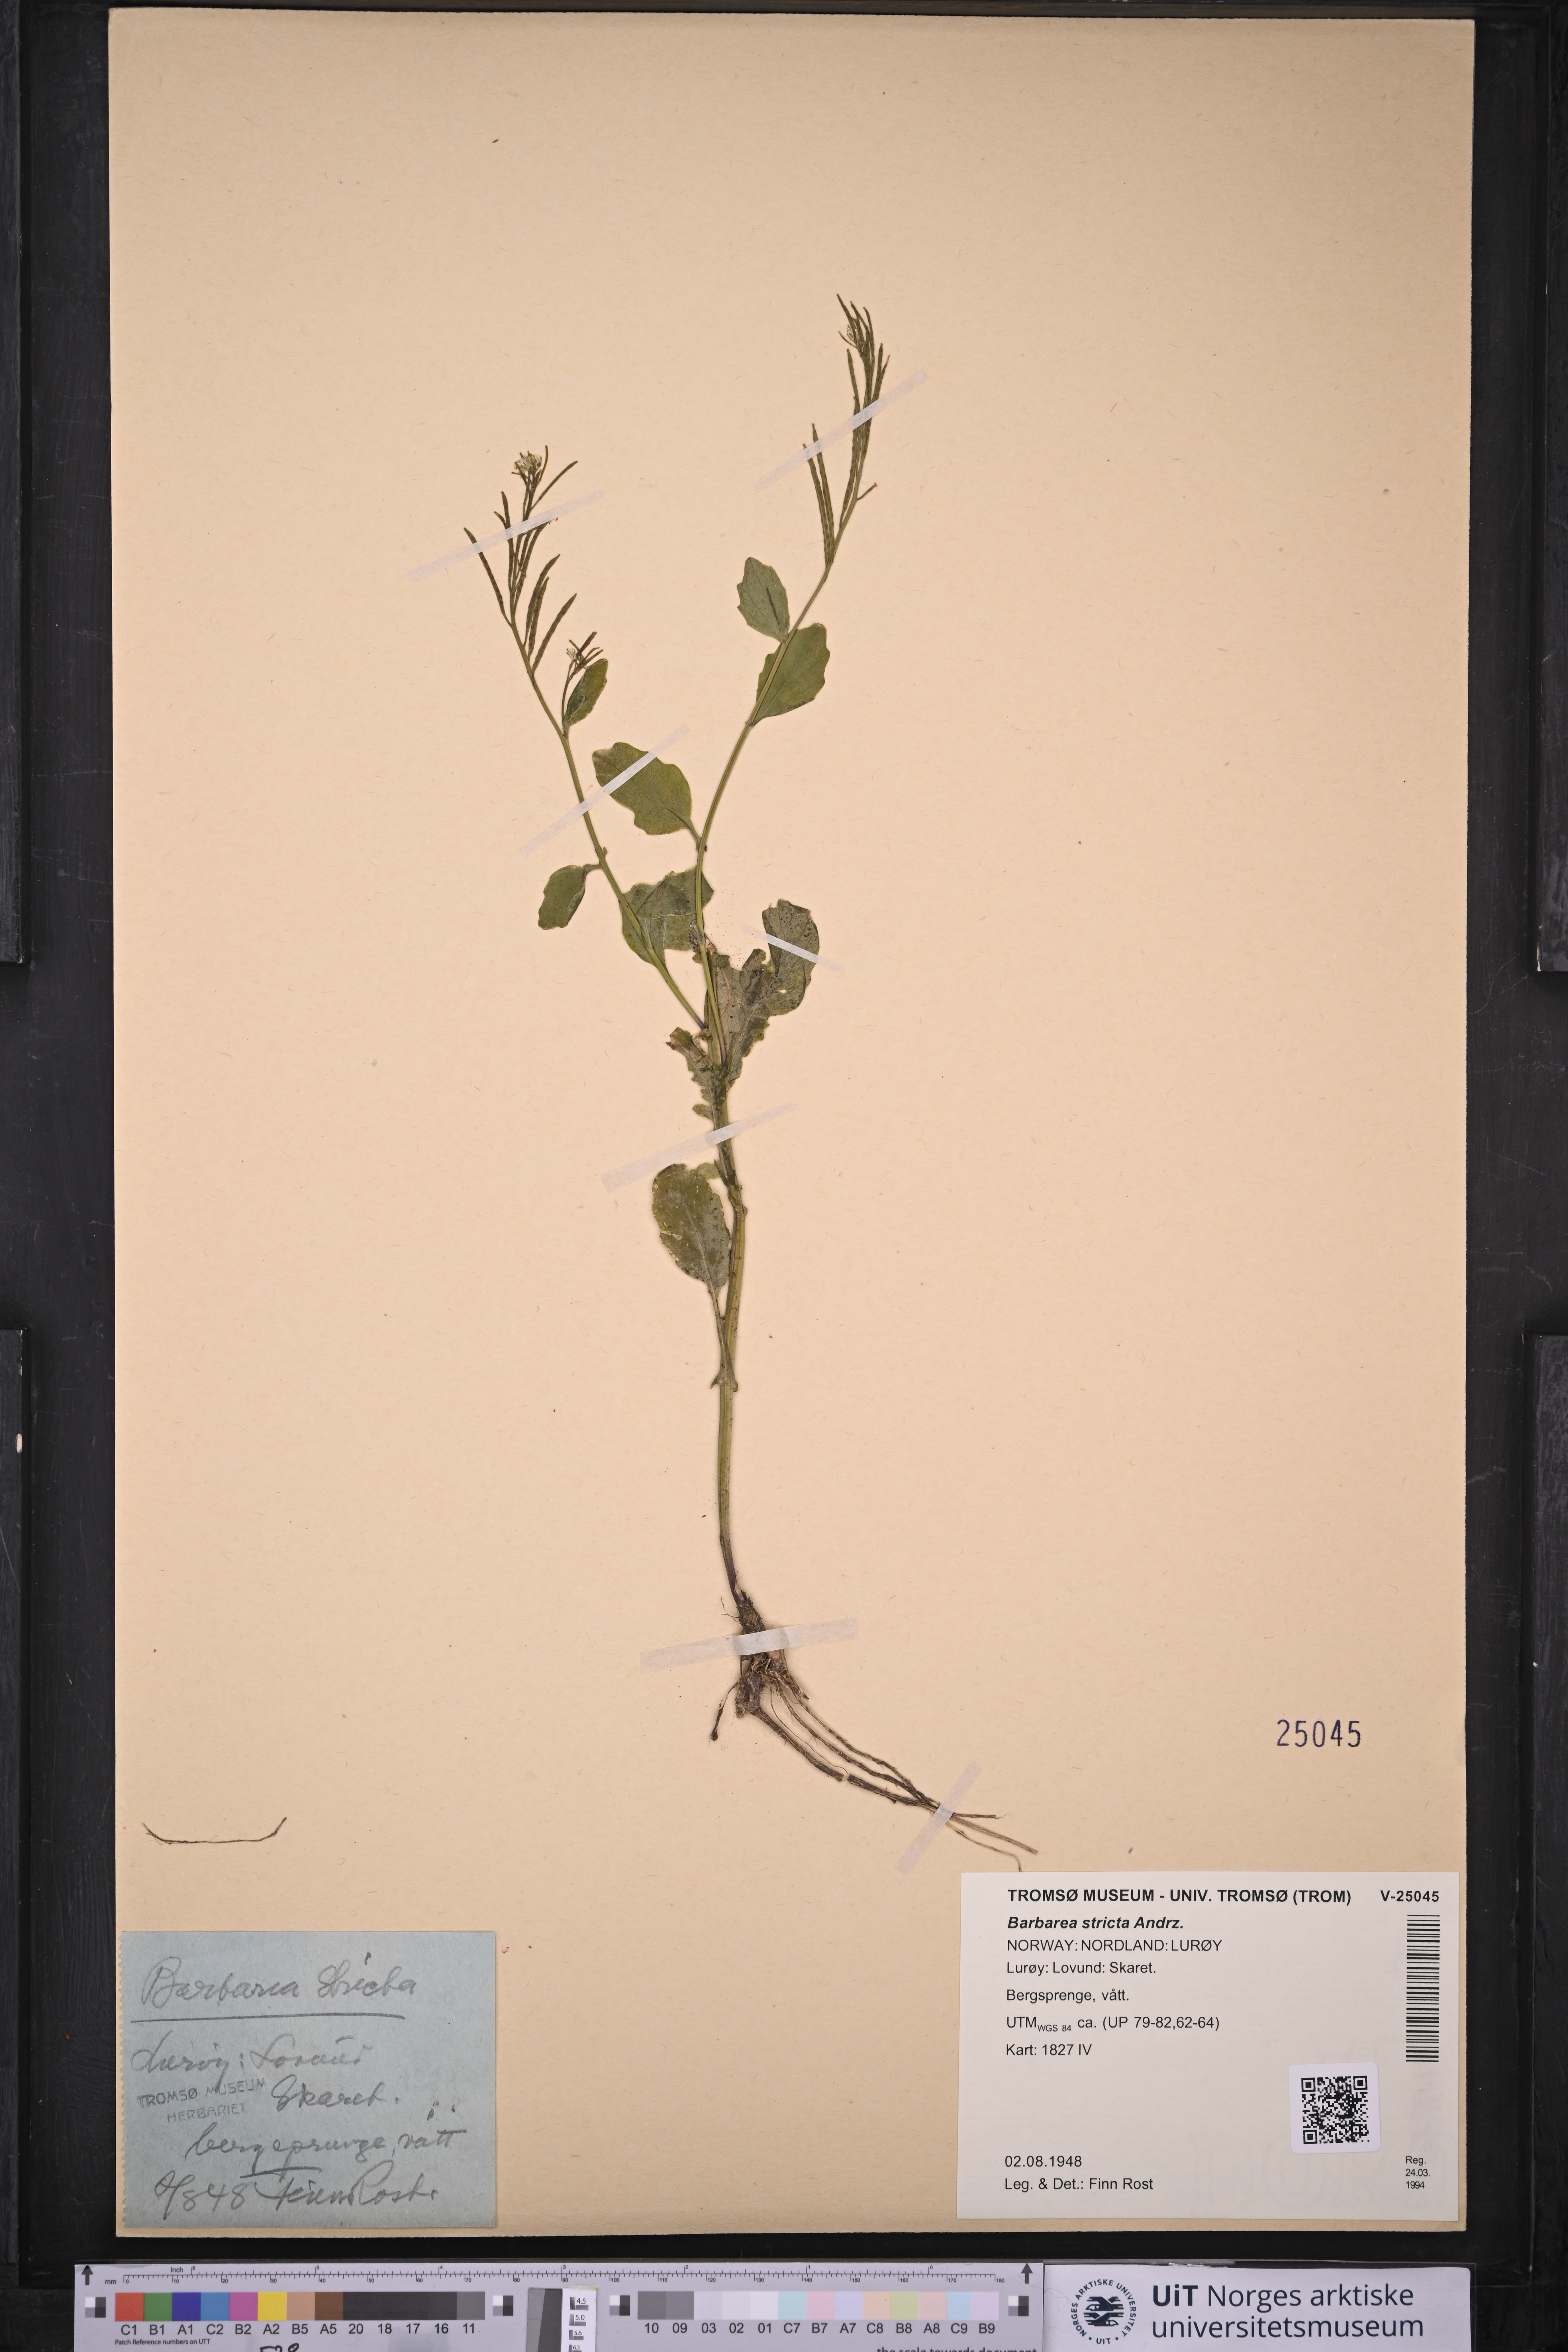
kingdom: Plantae
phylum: Tracheophyta
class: Magnoliopsida
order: Brassicales
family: Brassicaceae
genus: Barbarea
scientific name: Barbarea stricta
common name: Small-flowered winter-cress
